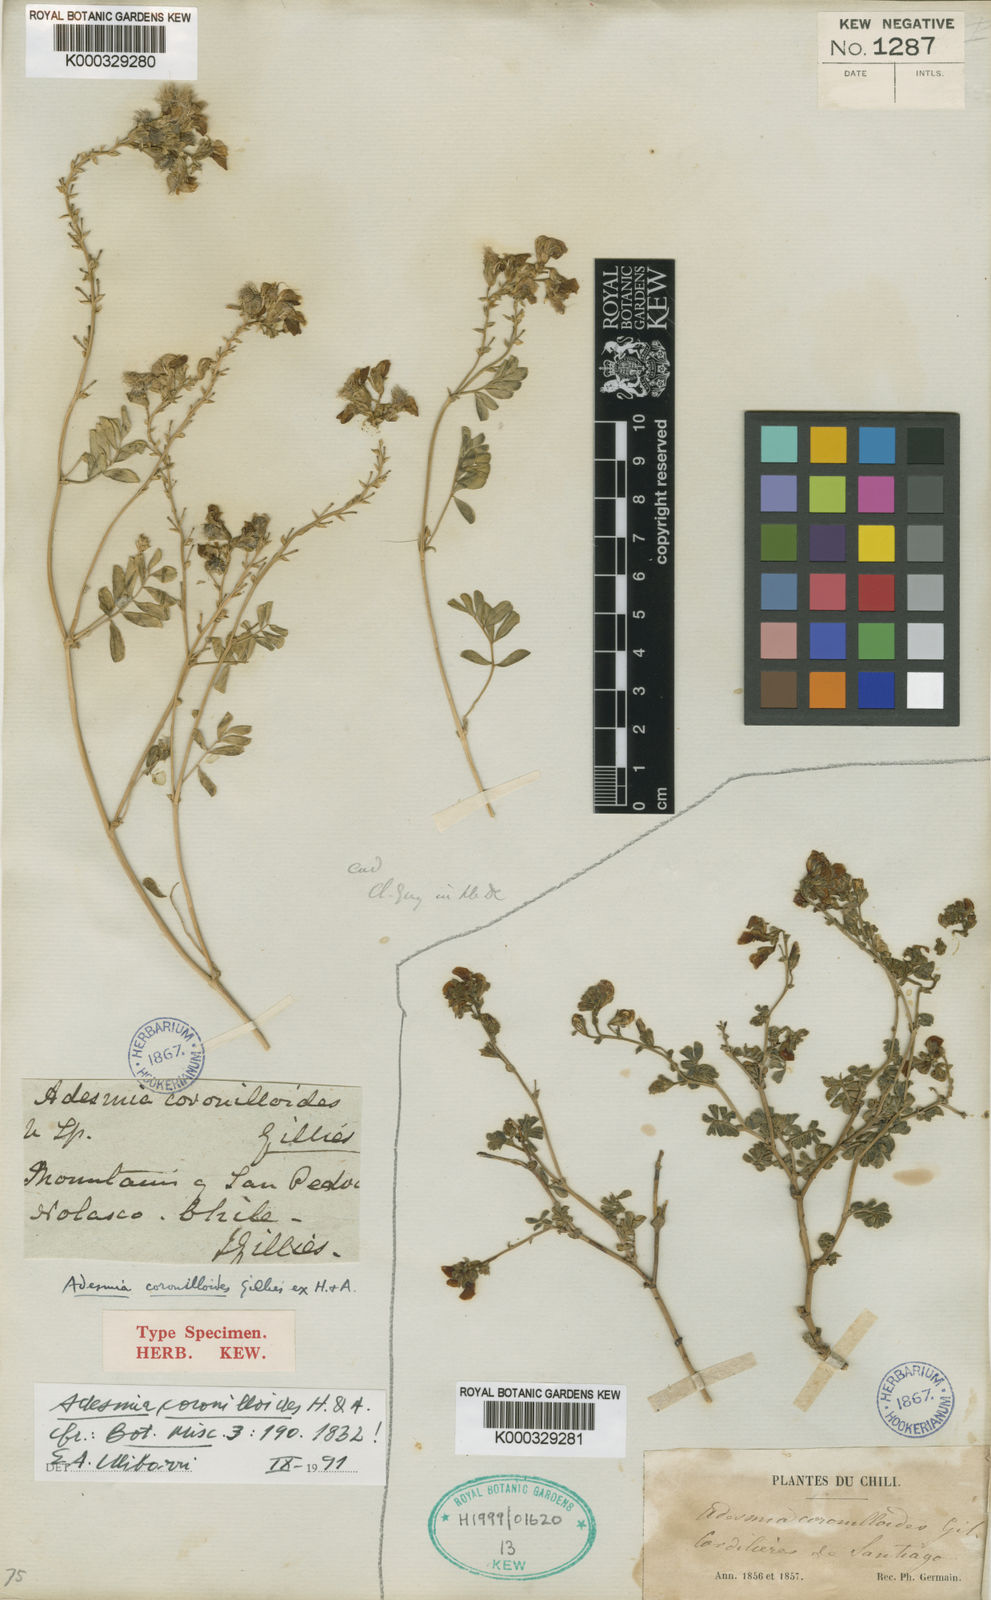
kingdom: Plantae
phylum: Tracheophyta
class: Magnoliopsida
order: Fabales
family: Fabaceae
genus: Adesmia
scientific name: Adesmia coronilloides
